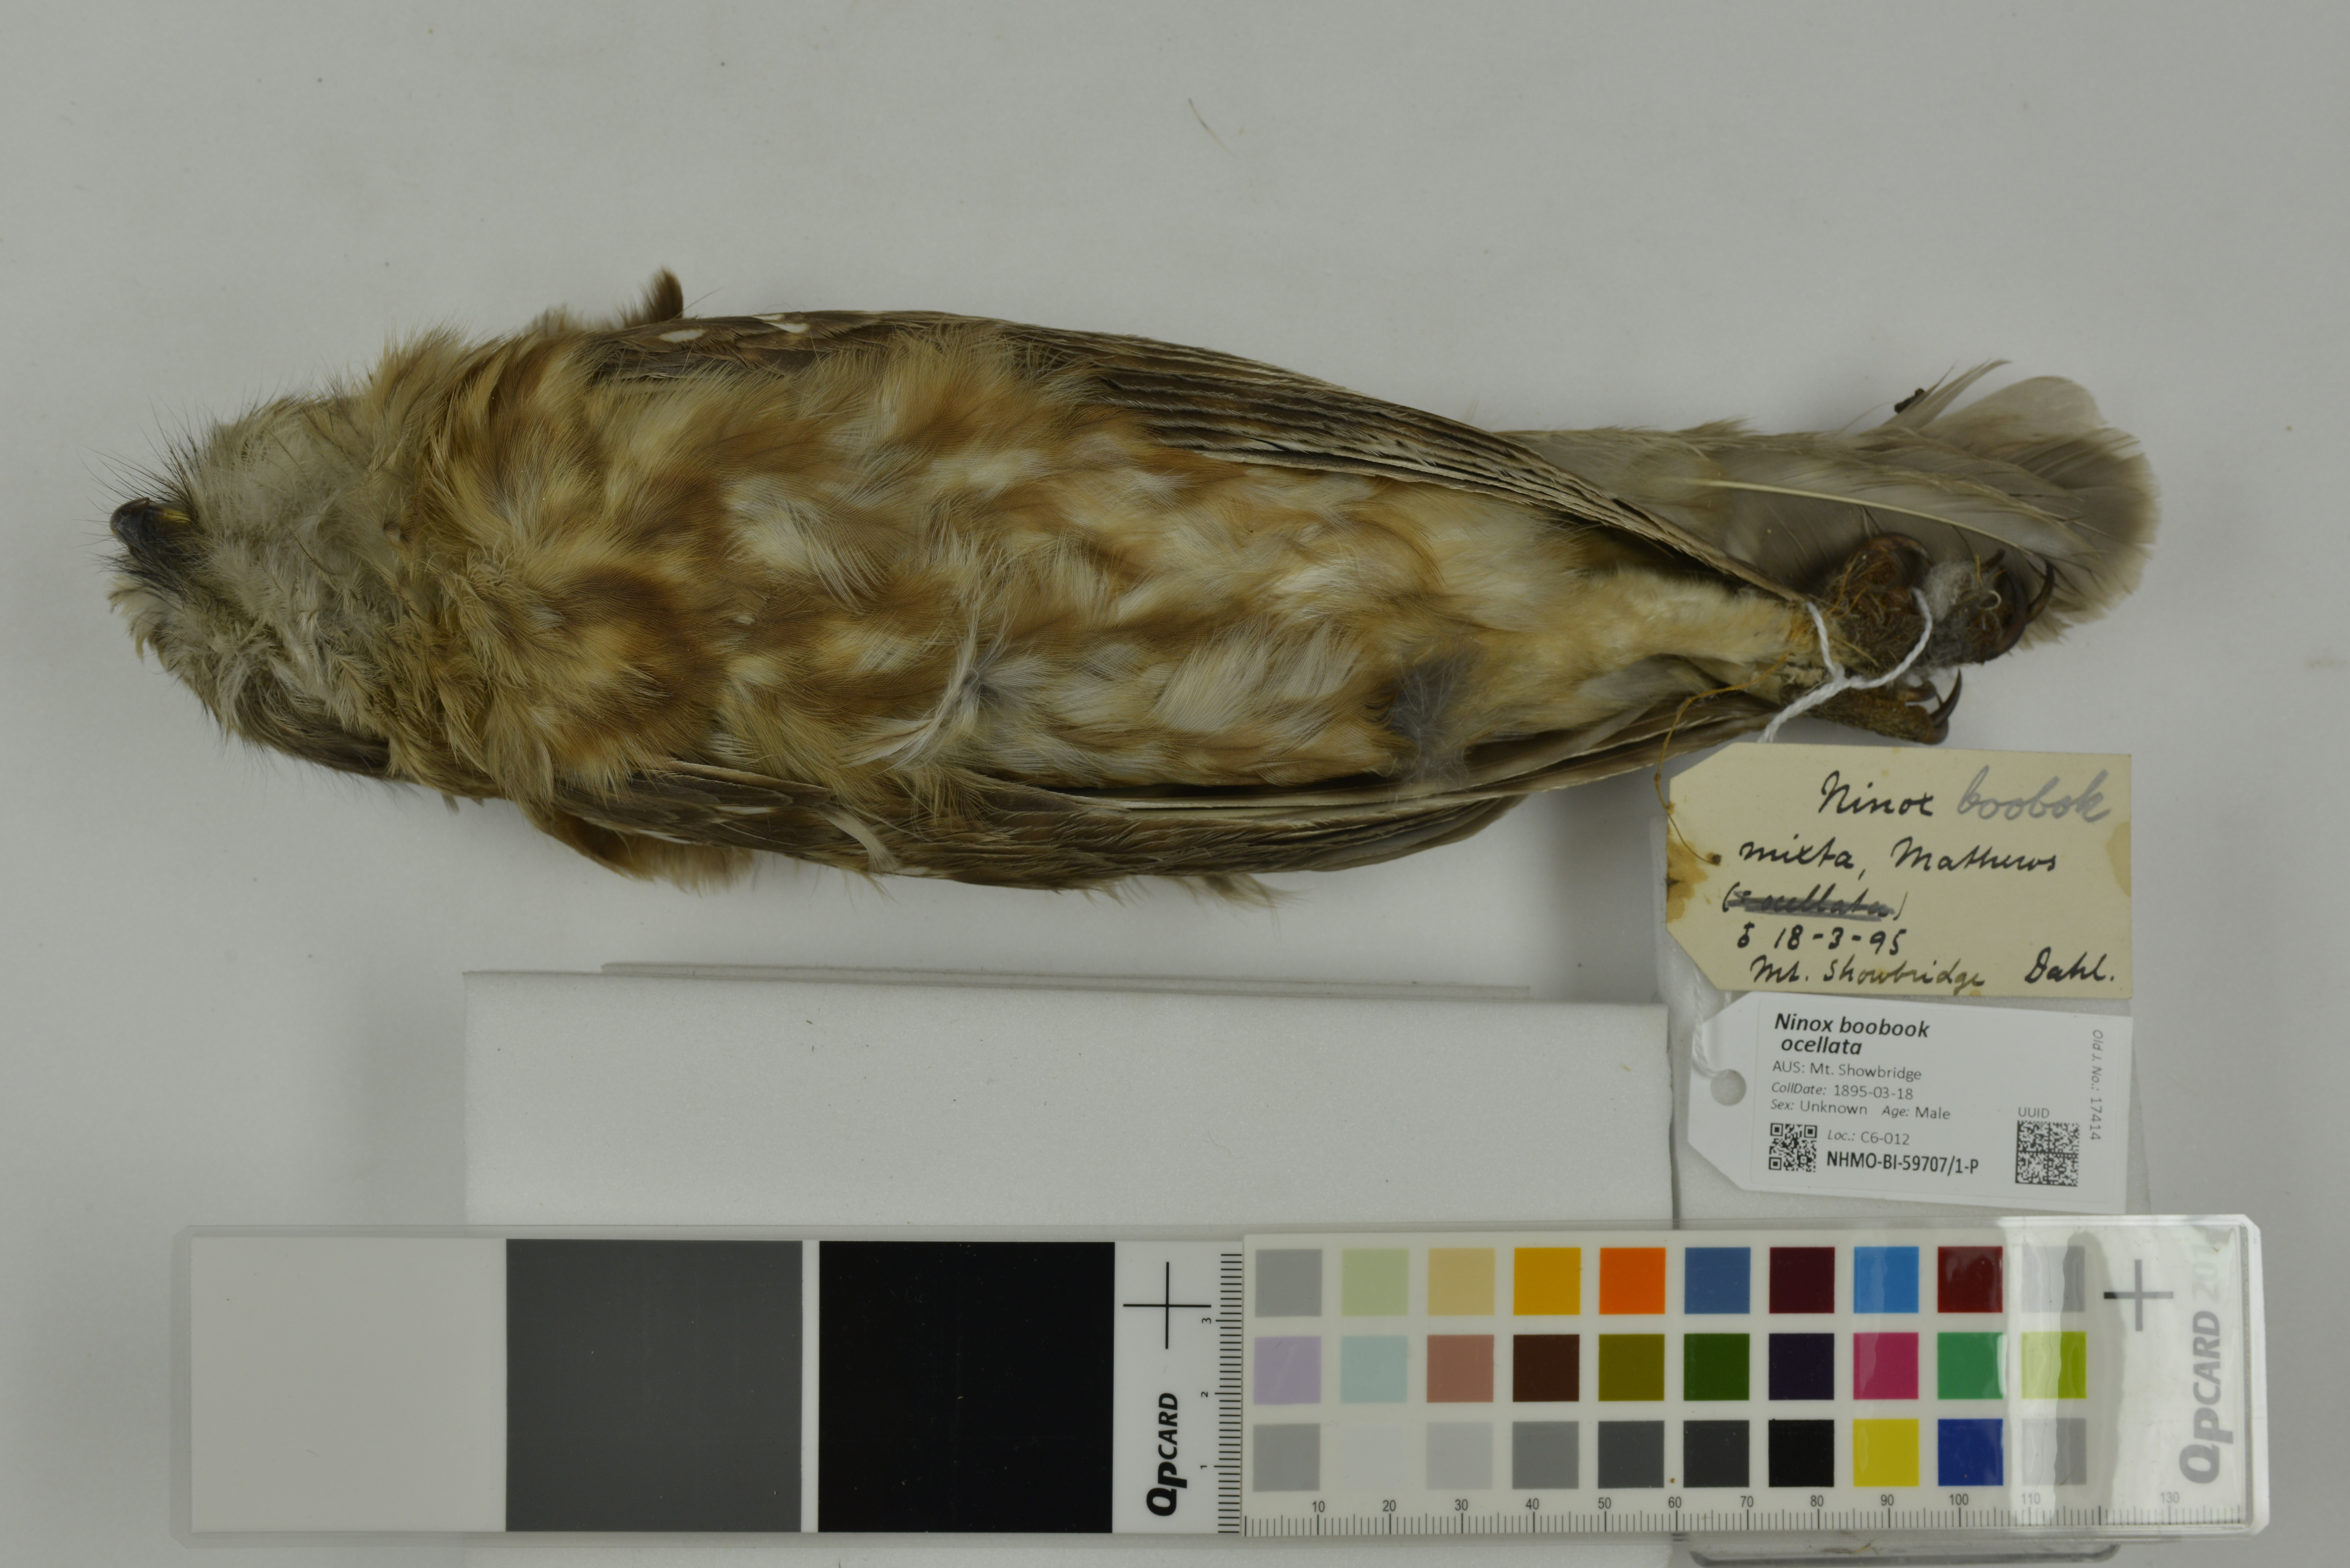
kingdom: Animalia
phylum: Chordata
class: Aves
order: Strigiformes
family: Strigidae
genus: Ninox
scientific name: Ninox boobook
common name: Southern boobook
